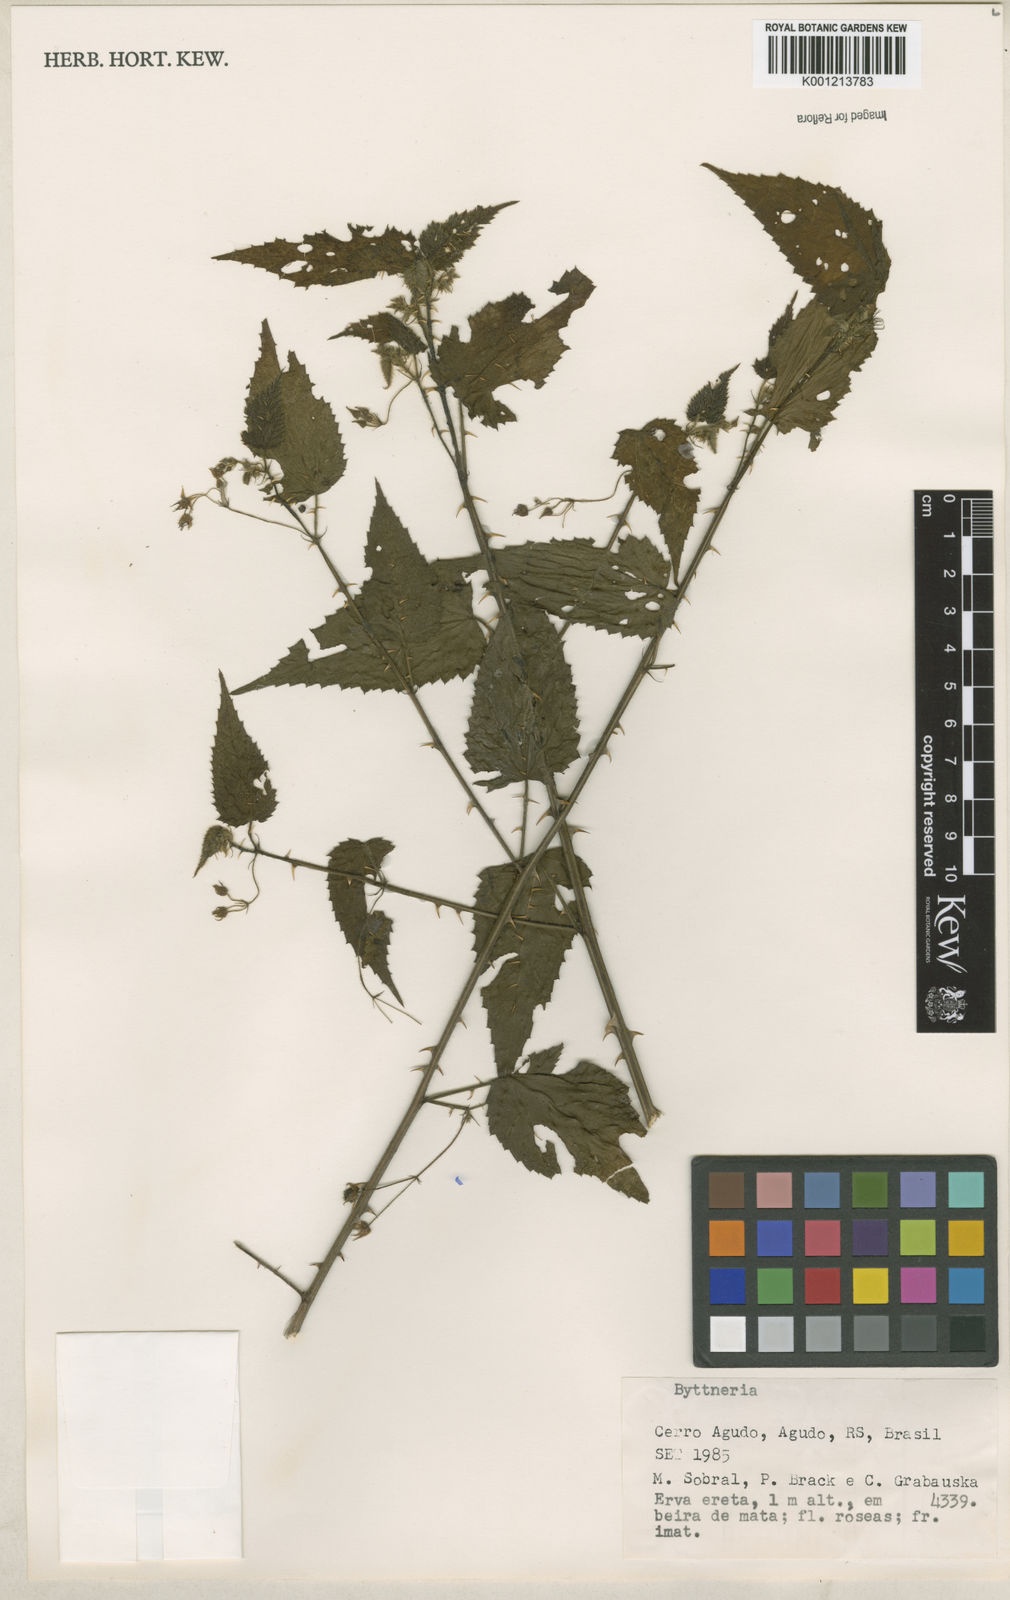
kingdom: Plantae
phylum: Tracheophyta
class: Magnoliopsida
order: Malvales
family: Malvaceae
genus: Byttneria
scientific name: Byttneria
